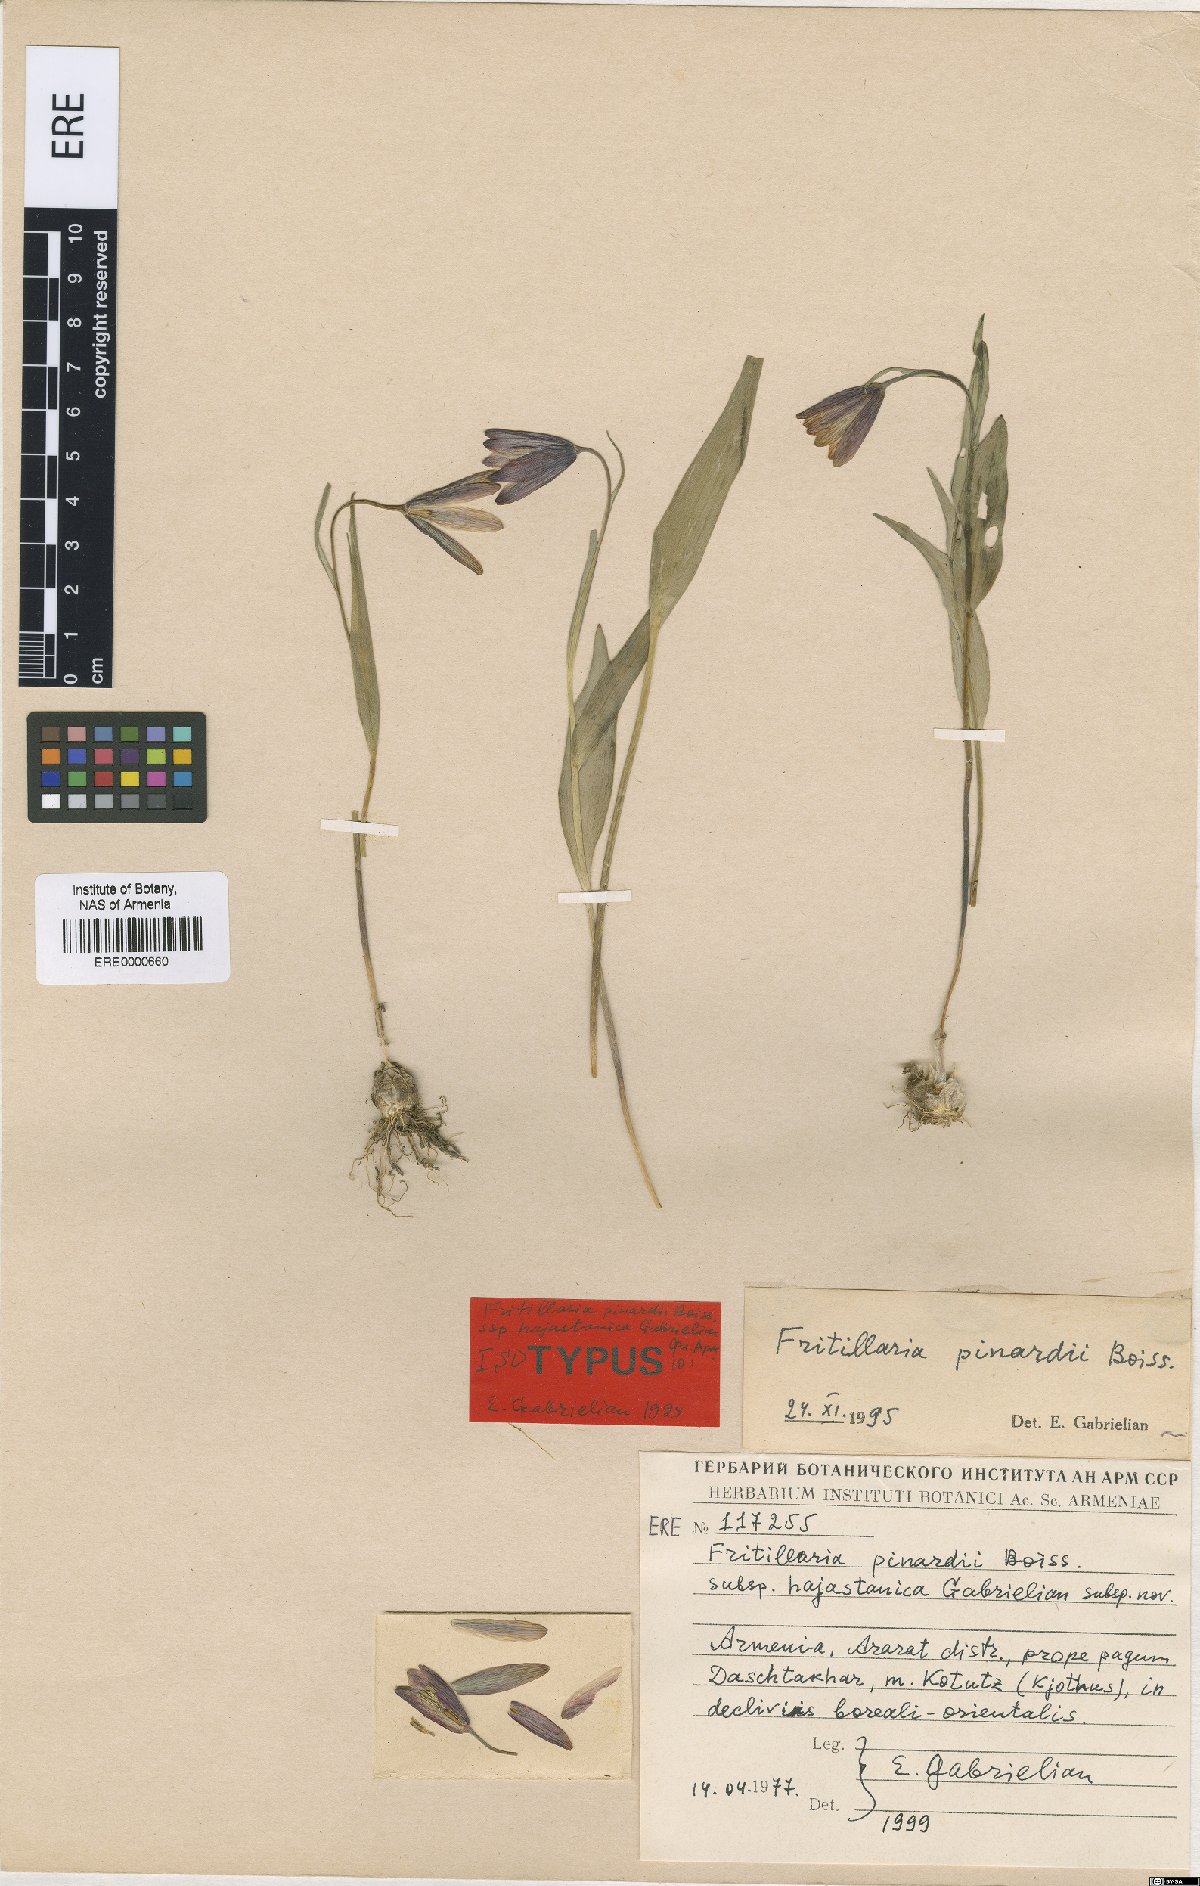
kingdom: Plantae
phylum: Tracheophyta
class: Liliopsida
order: Liliales
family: Liliaceae
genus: Fritillaria
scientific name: Fritillaria pinardii
